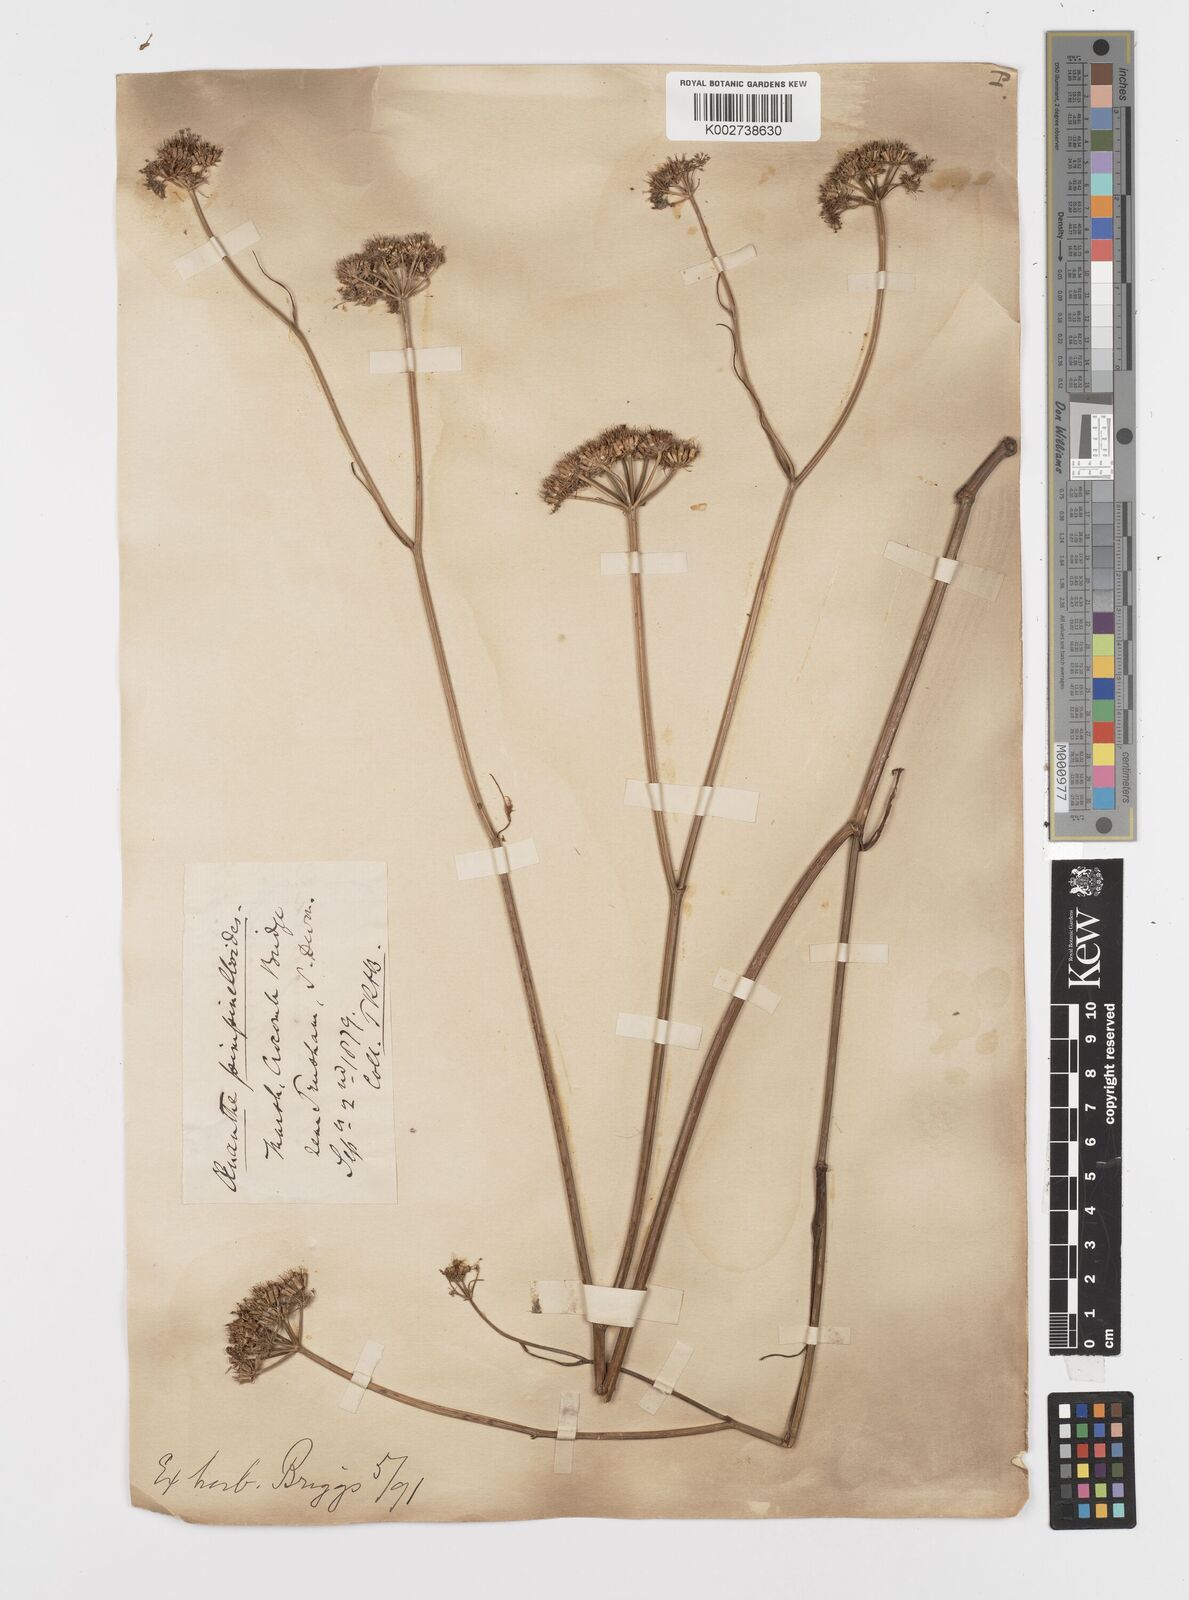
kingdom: Plantae
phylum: Tracheophyta
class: Magnoliopsida
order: Apiales
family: Apiaceae
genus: Oenanthe
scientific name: Oenanthe pimpinelloides
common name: Corky-fruited water-dropwort
